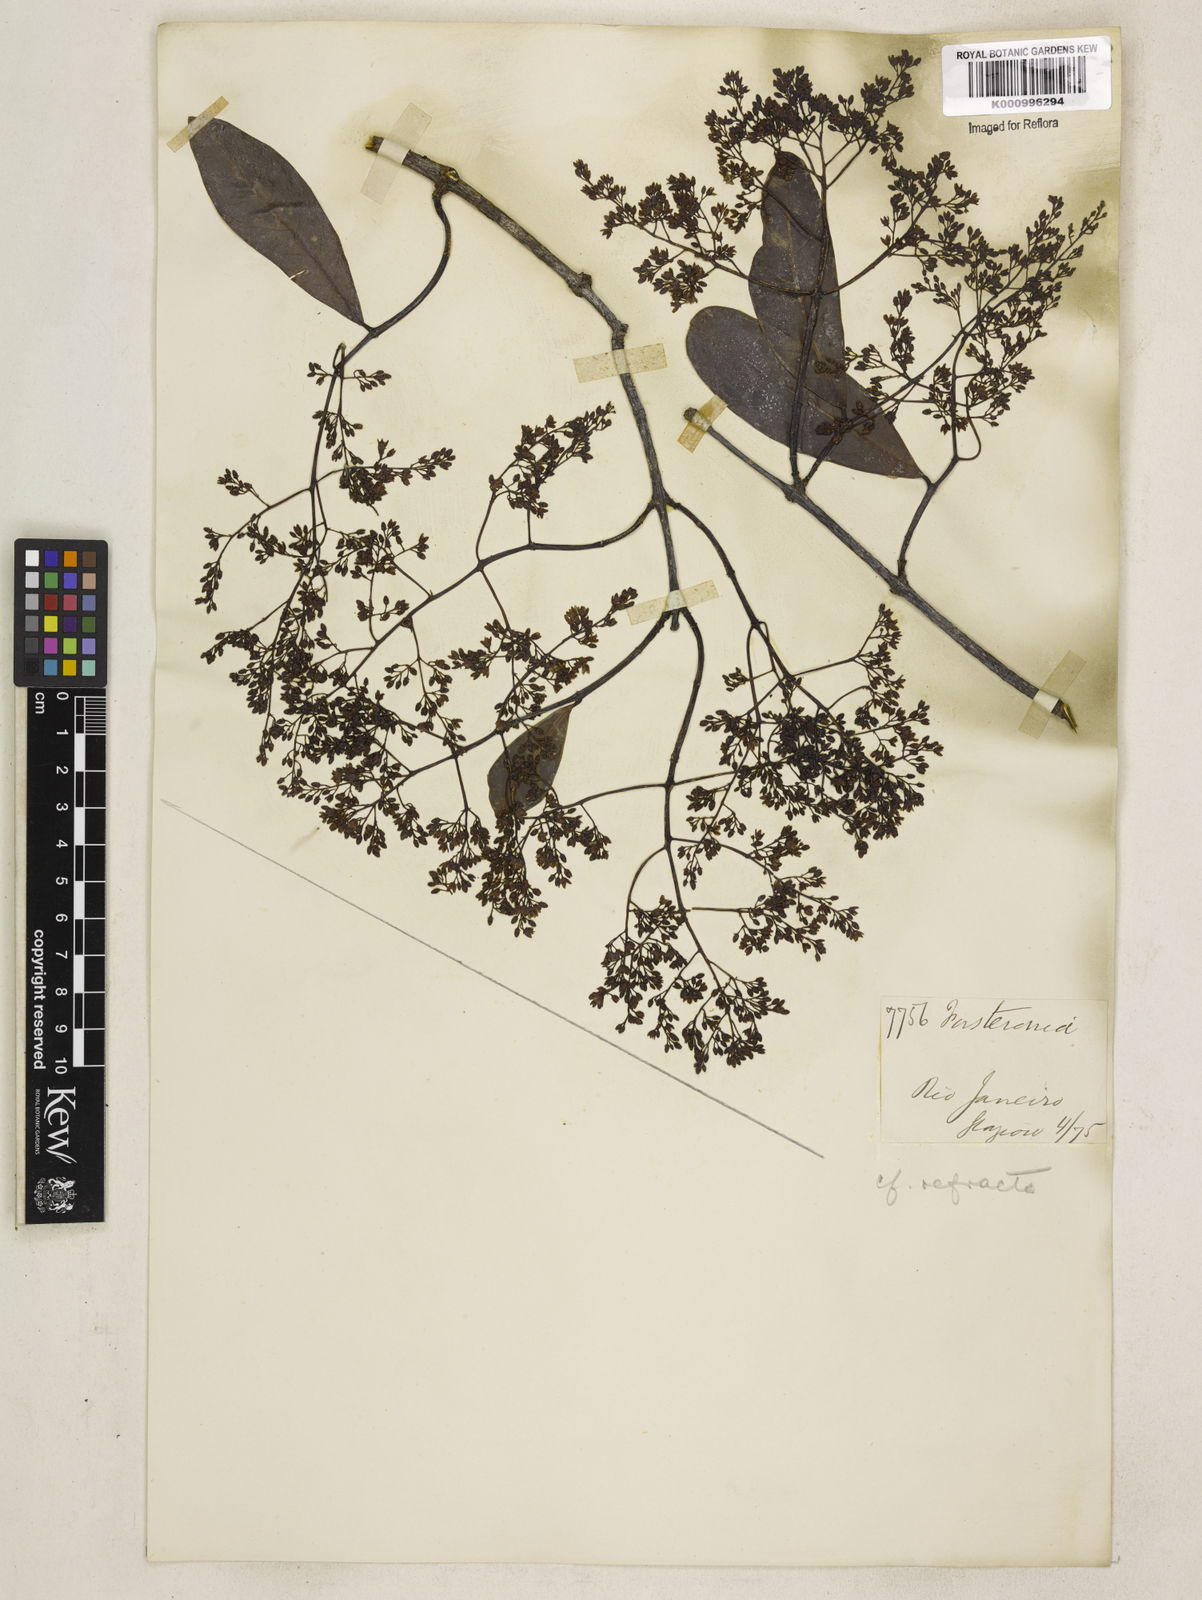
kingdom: Plantae
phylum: Tracheophyta
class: Magnoliopsida
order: Gentianales
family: Apocynaceae
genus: Forsteronia
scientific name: Forsteronia
